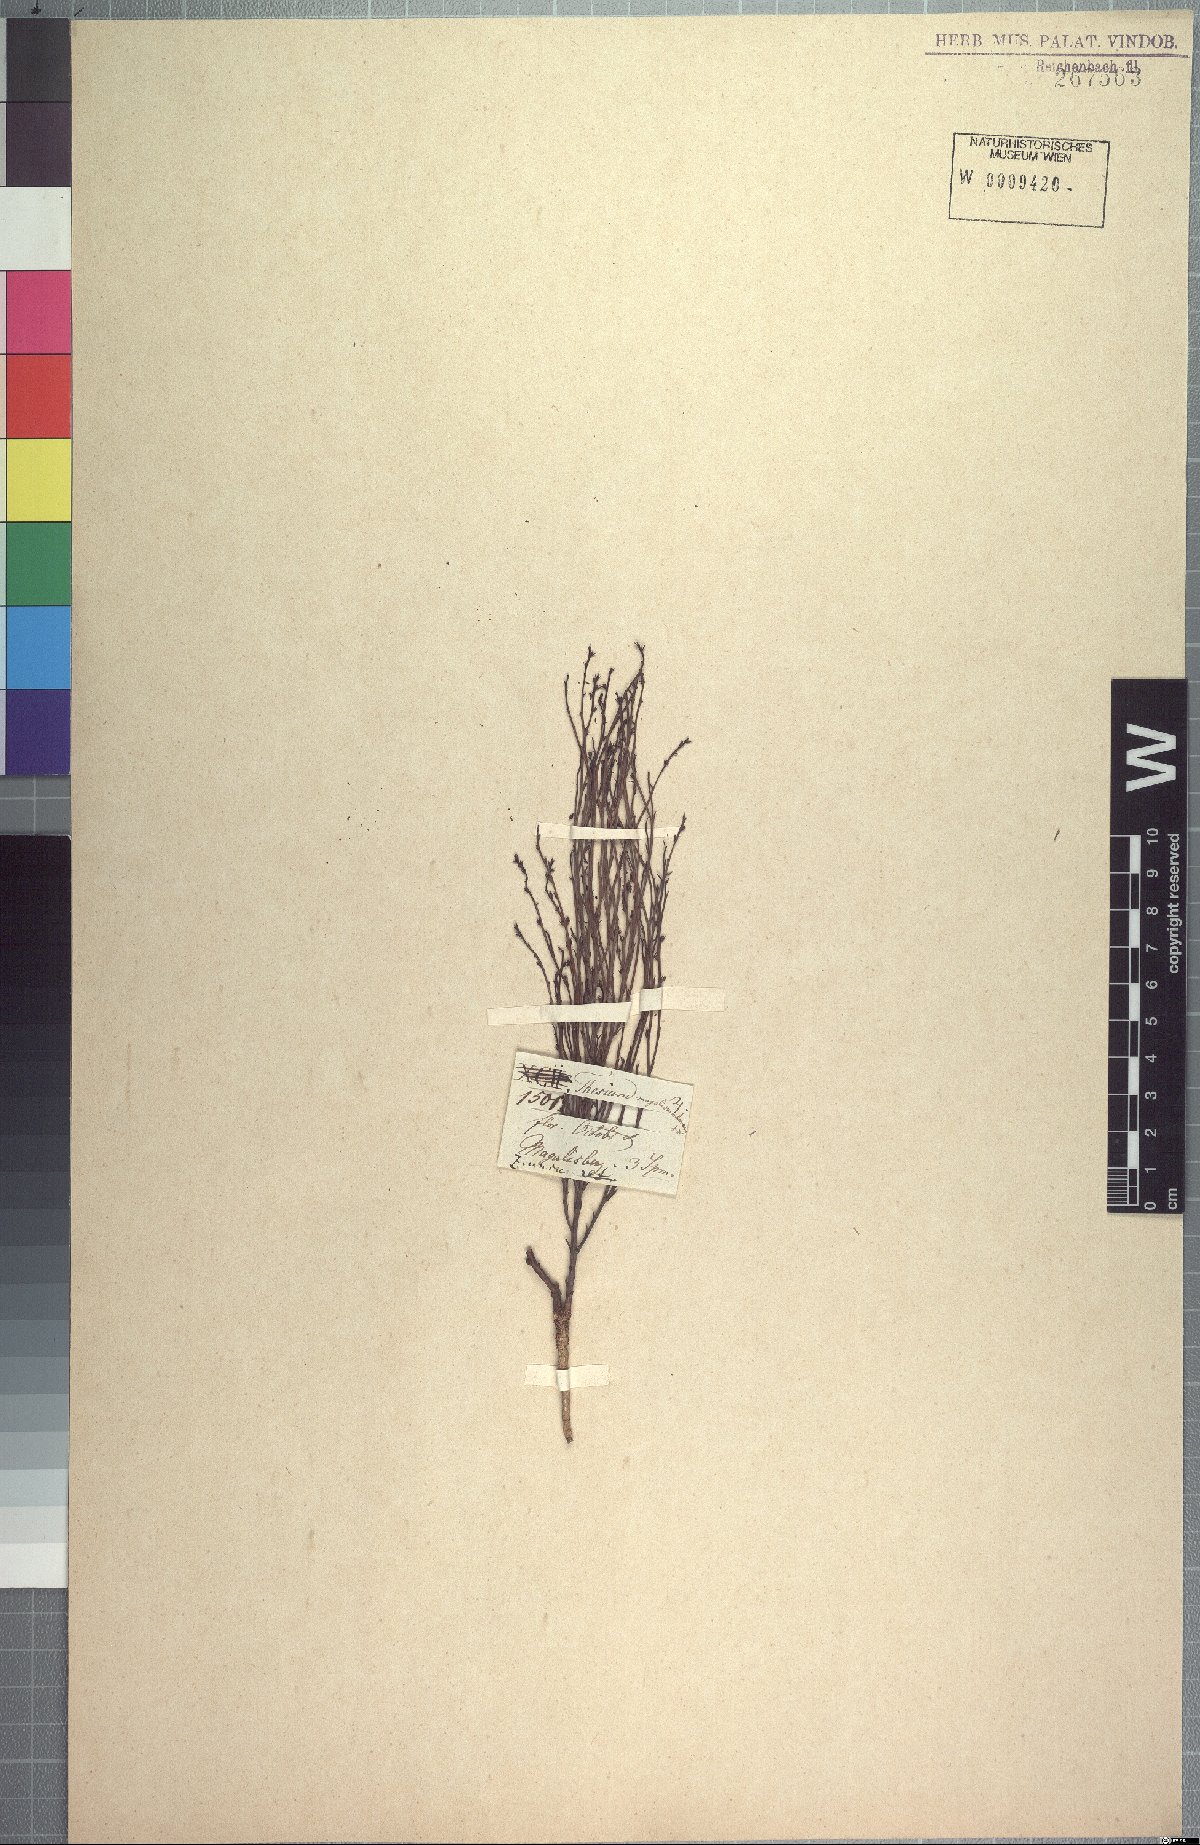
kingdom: Plantae
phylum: Tracheophyta
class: Magnoliopsida
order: Santalales
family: Thesiaceae
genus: Thesium
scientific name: Thesium magalismontanum
